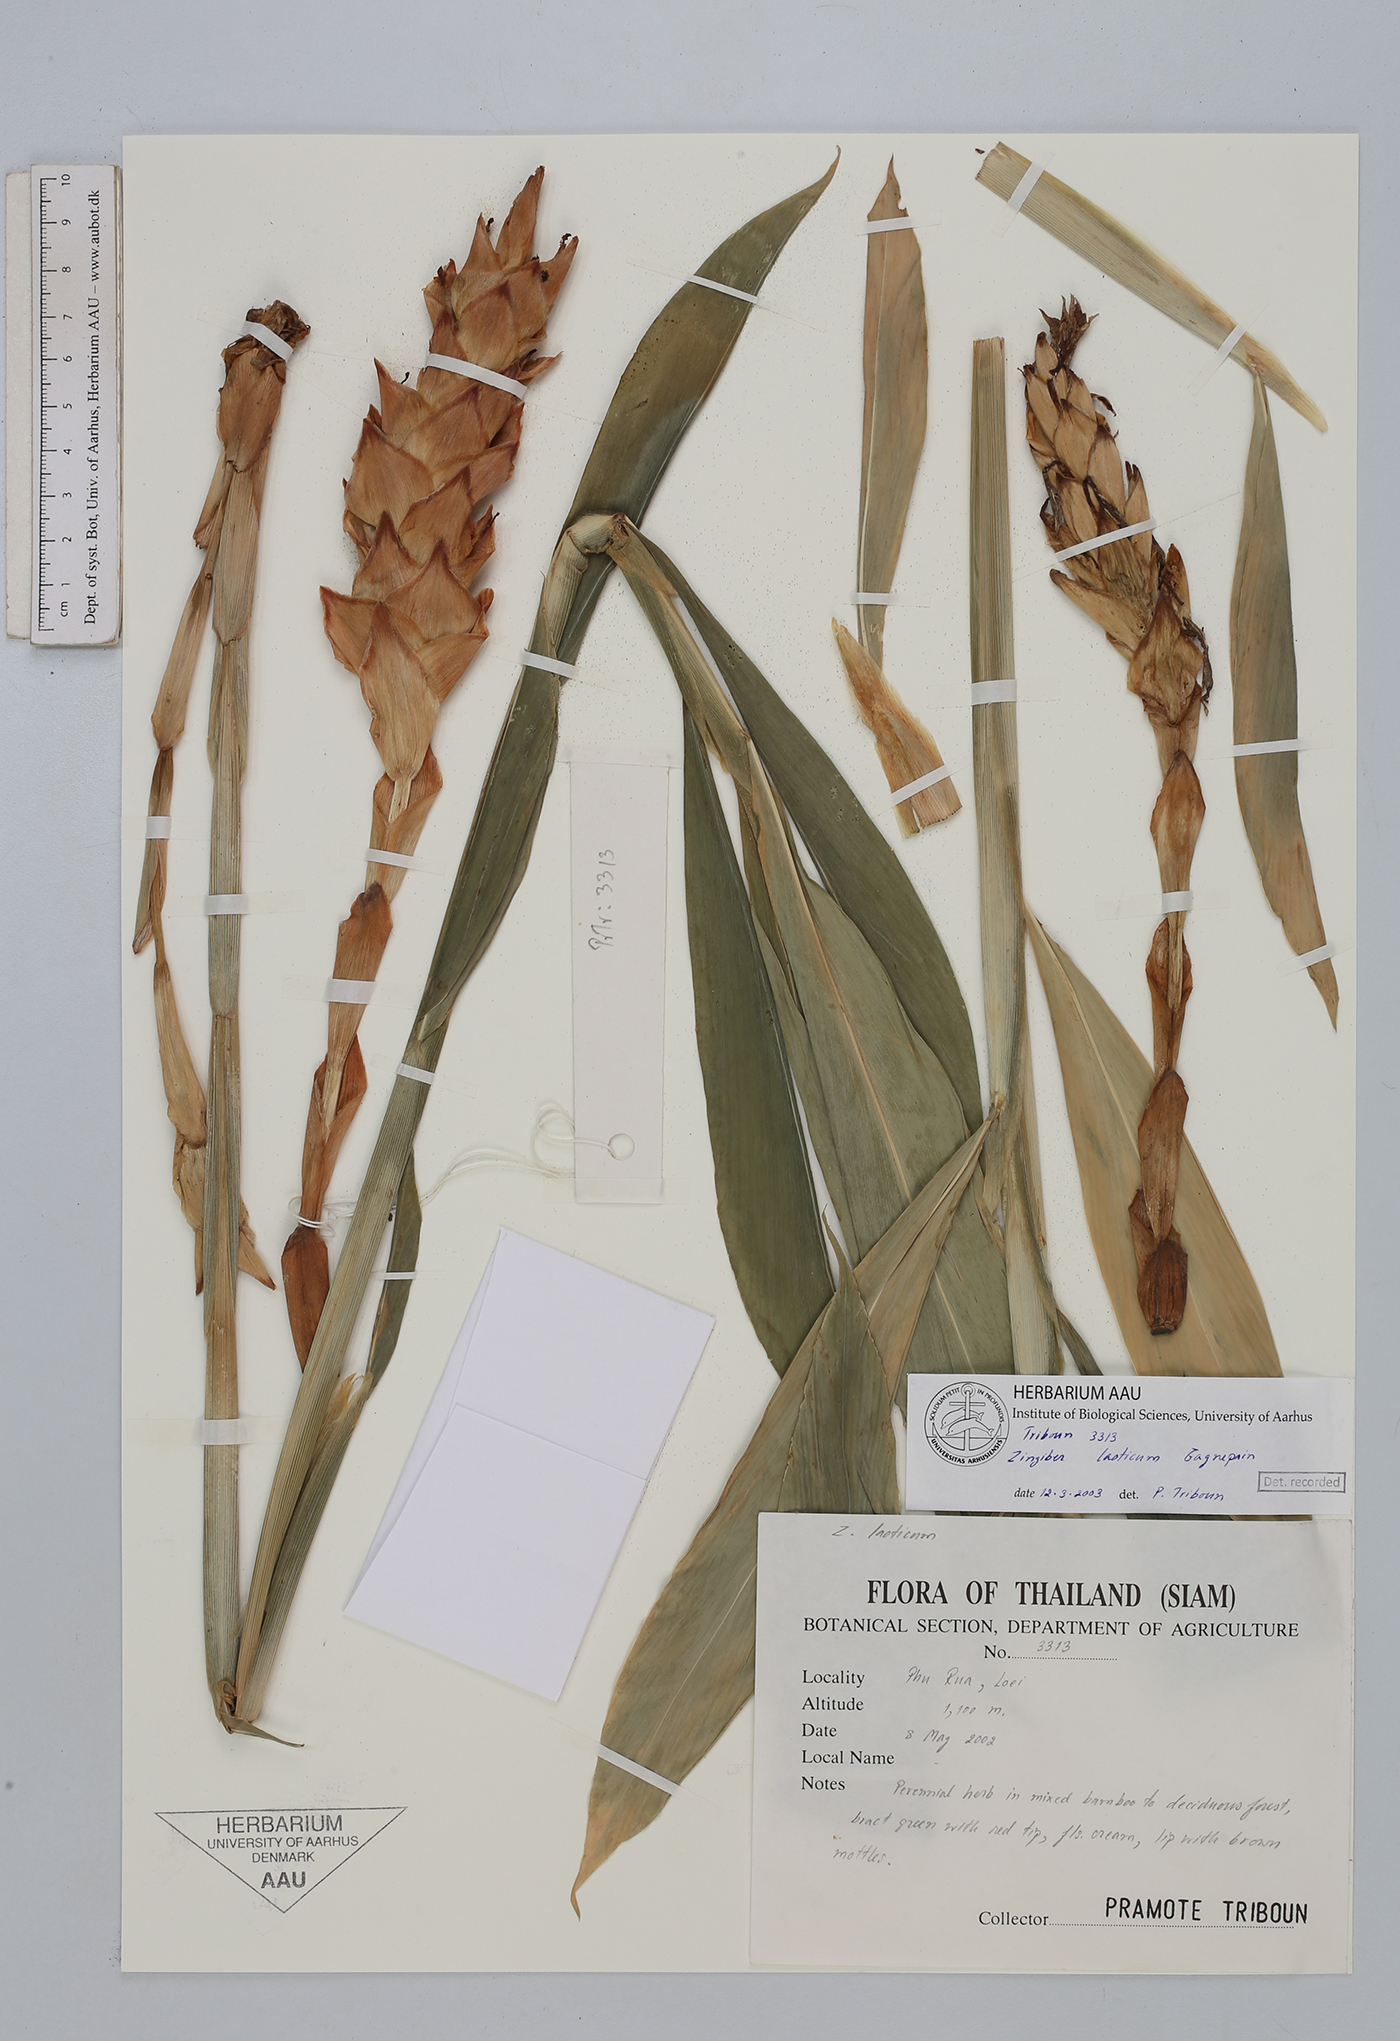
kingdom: Plantae
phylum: Tracheophyta
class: Liliopsida
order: Zingiberales
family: Zingiberaceae
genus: Zingiber
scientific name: Zingiber laoticum
